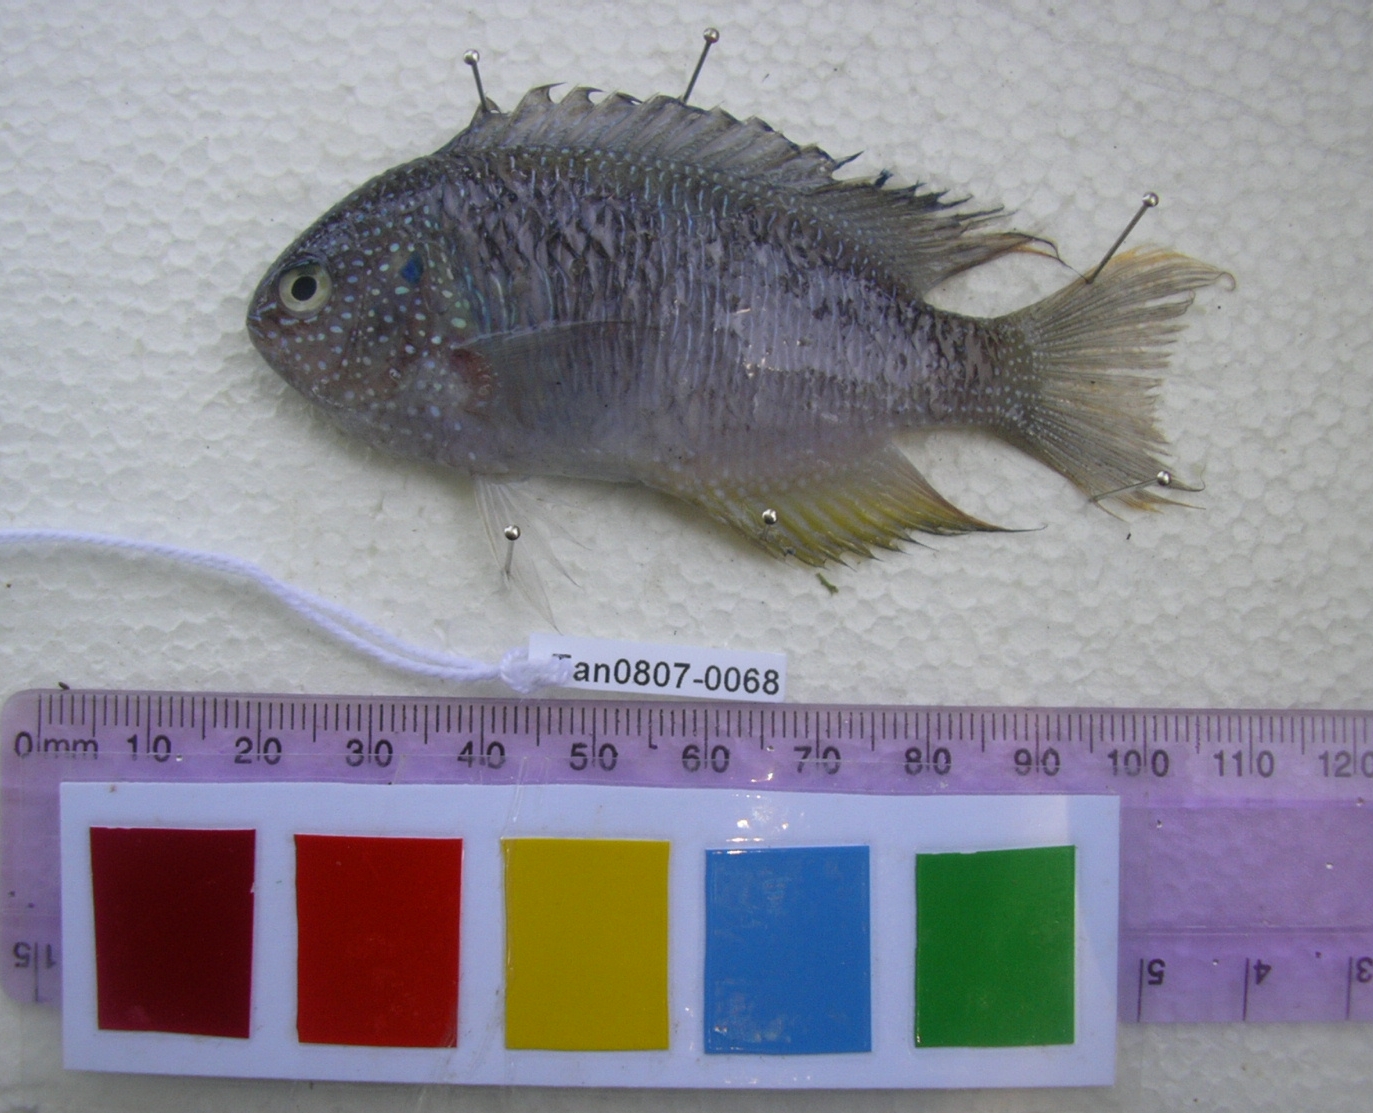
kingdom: Animalia
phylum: Chordata
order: Perciformes
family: Pomacentridae
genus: Pomacentrus
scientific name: Pomacentrus pavo
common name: Sapphire damsel
